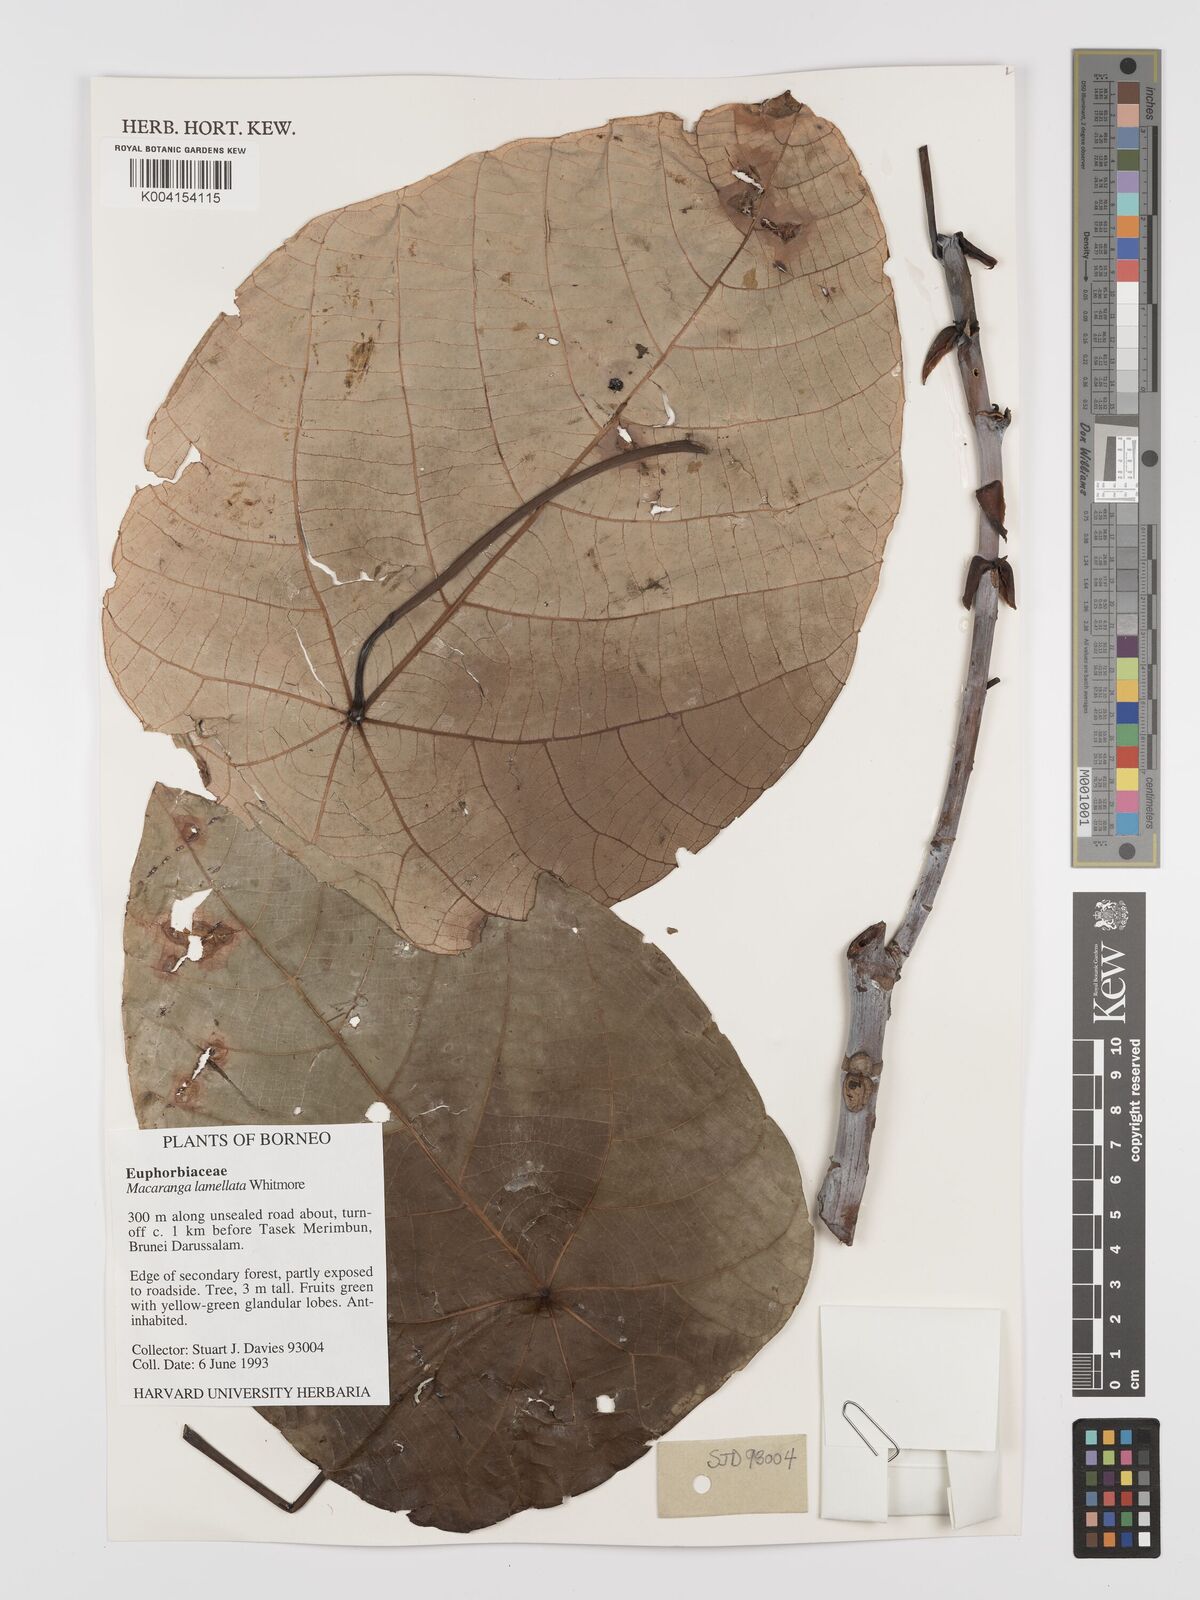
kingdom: Plantae
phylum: Tracheophyta
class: Magnoliopsida
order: Malpighiales
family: Euphorbiaceae
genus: Macaranga
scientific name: Macaranga lamellata
